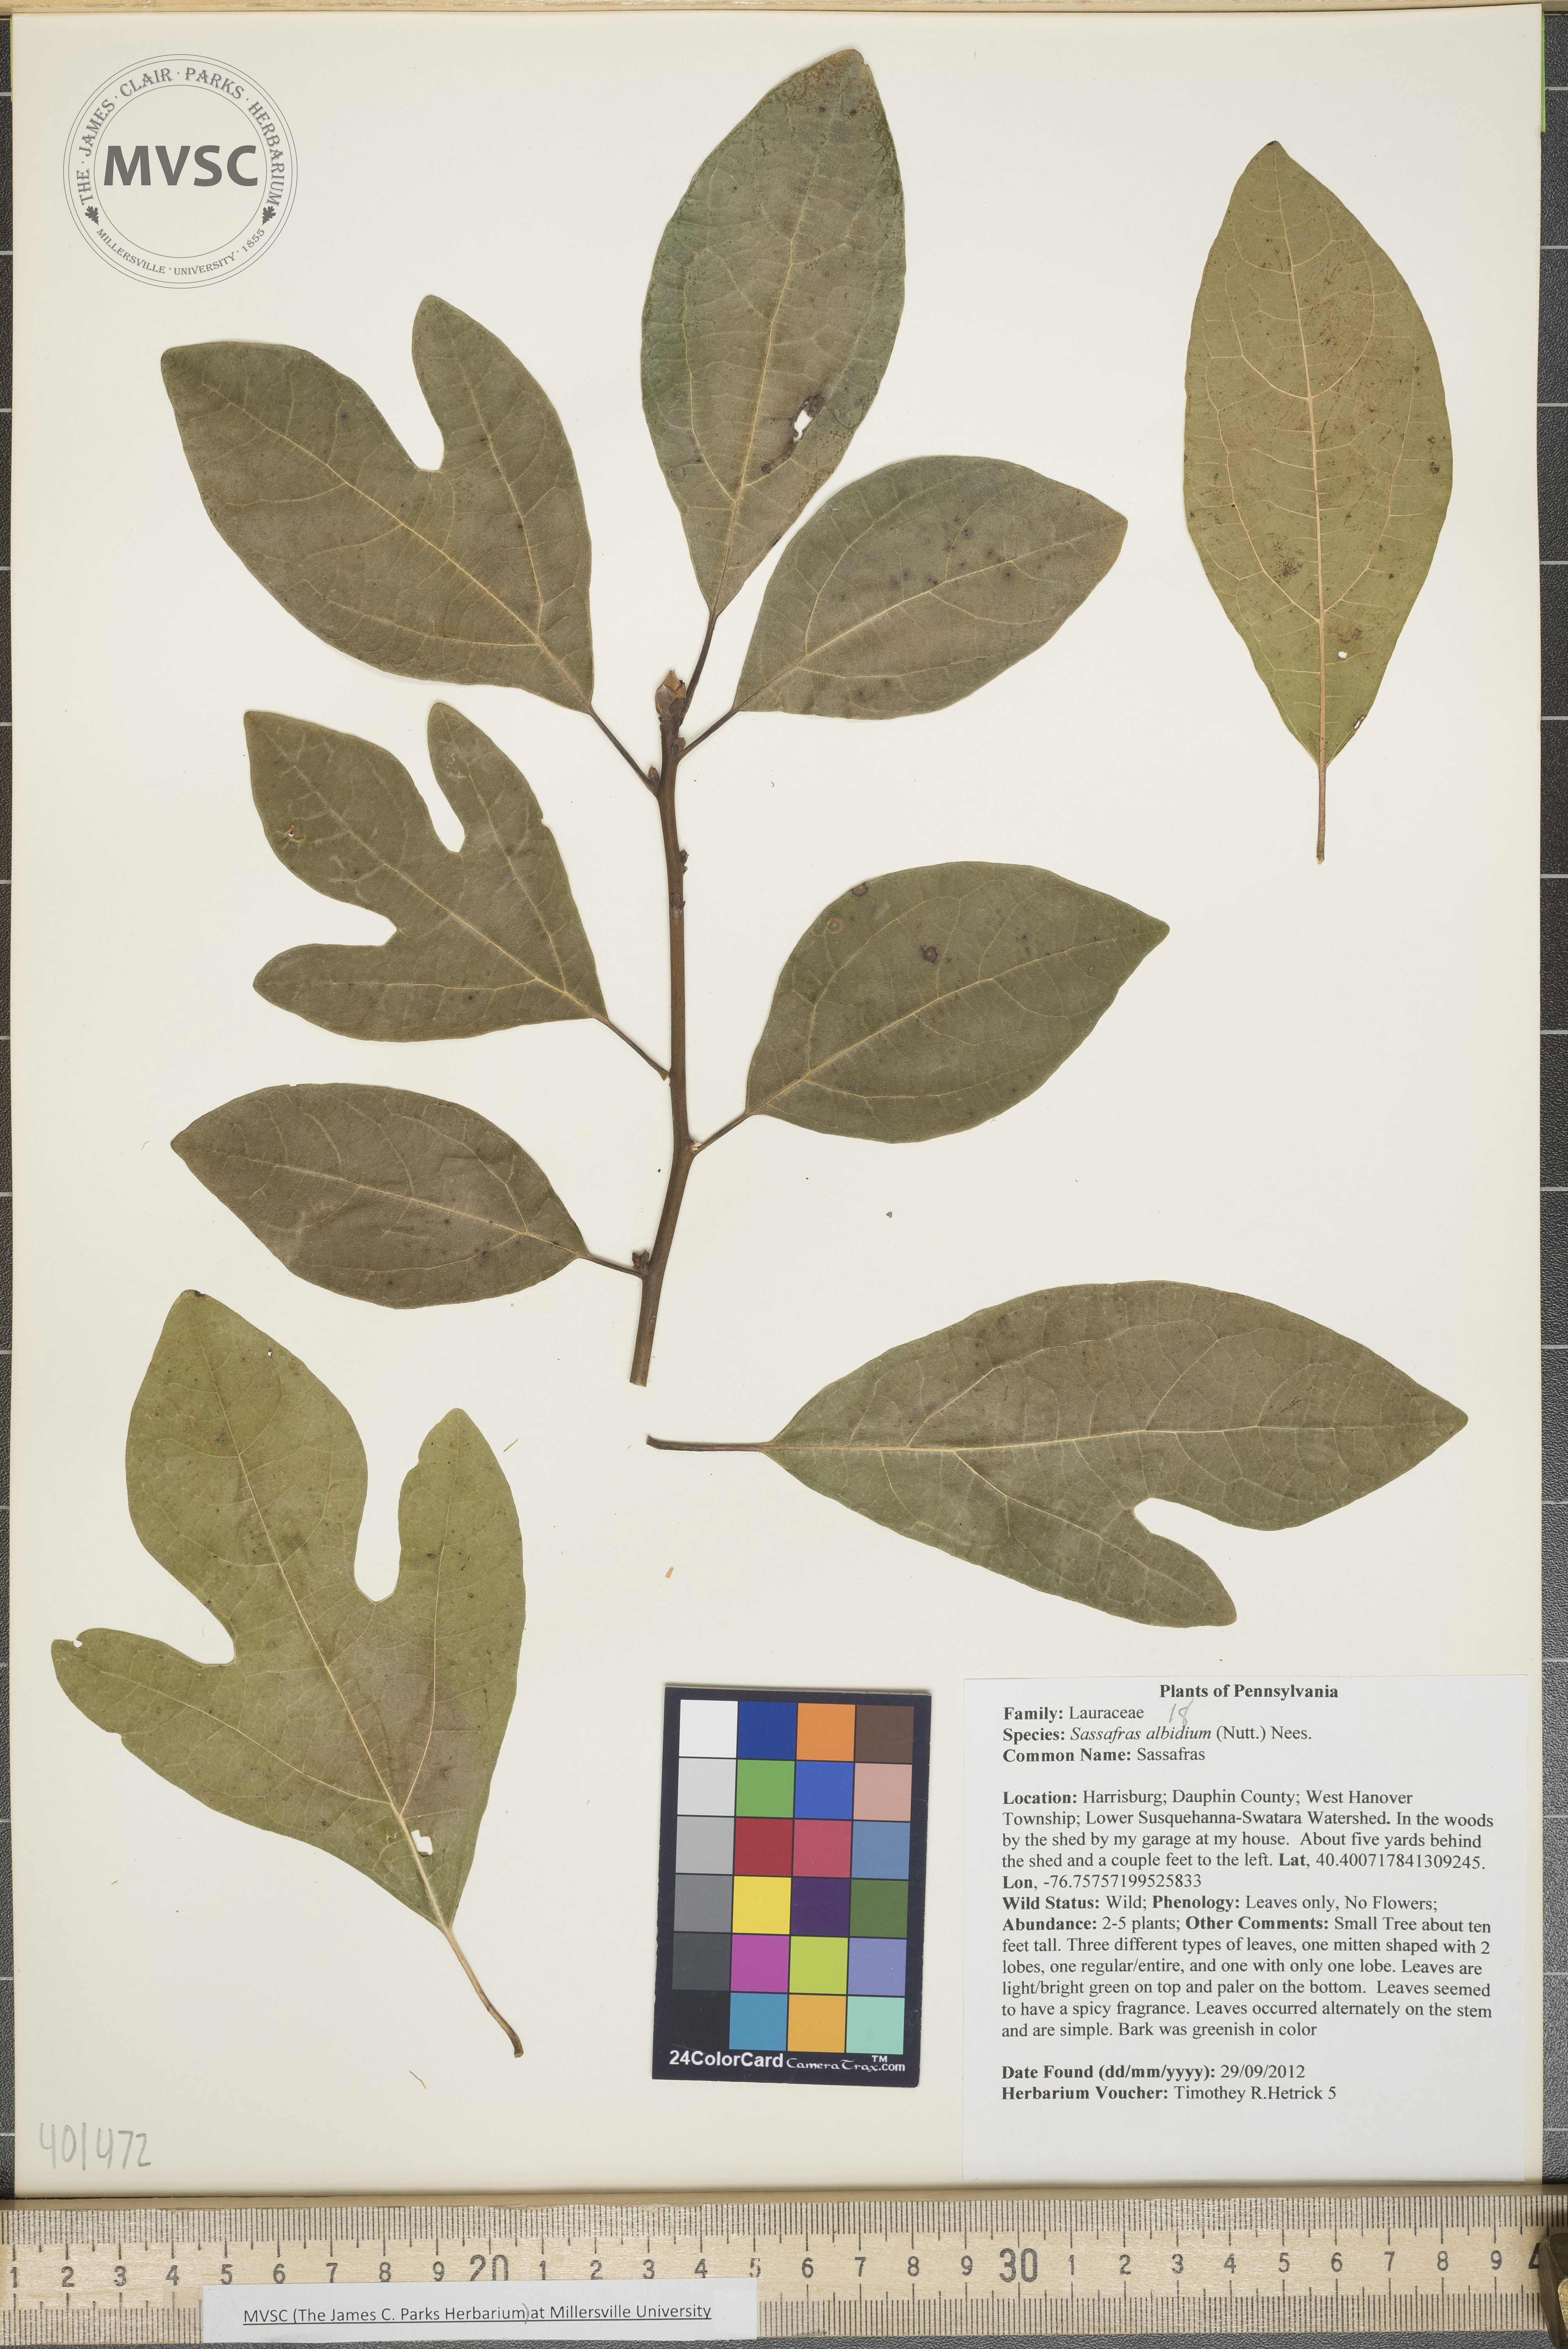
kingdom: Plantae
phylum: Tracheophyta
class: Magnoliopsida
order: Laurales
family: Lauraceae
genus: Sassafras
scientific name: Sassafras albidum
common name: Sassafras
